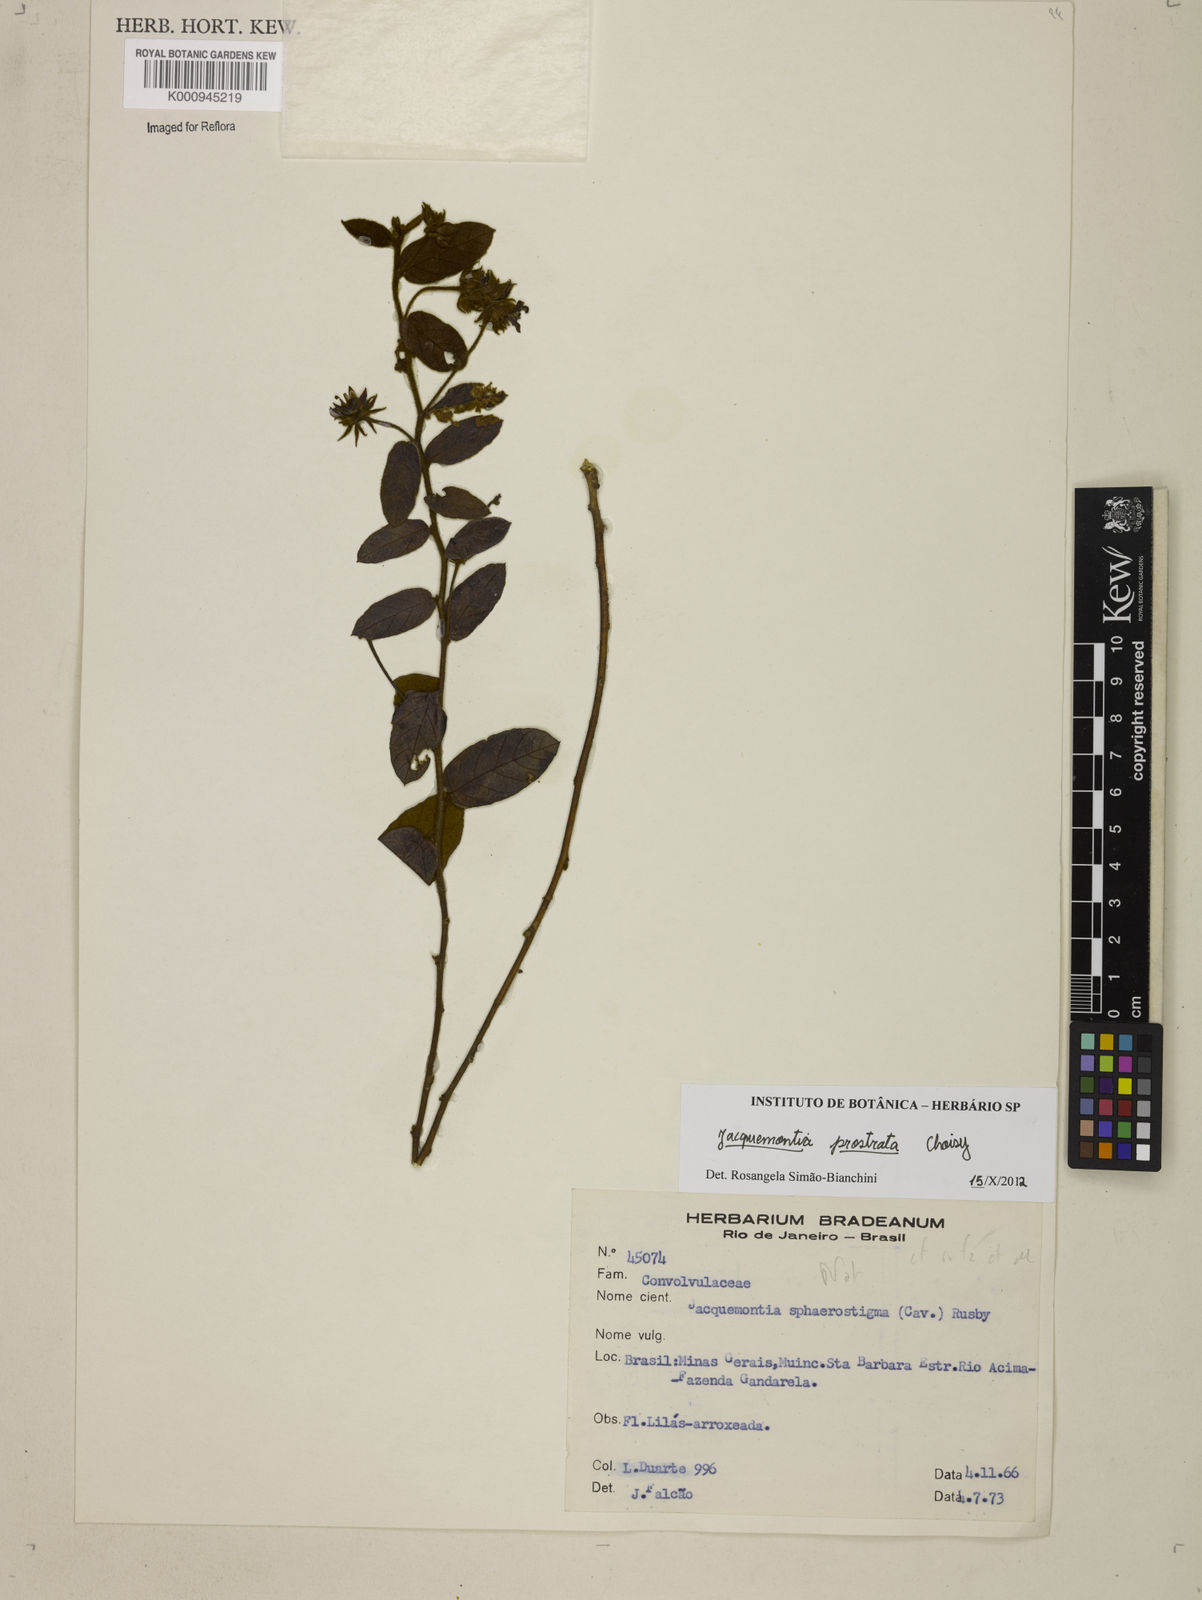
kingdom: Plantae
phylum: Tracheophyta
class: Magnoliopsida
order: Solanales
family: Convolvulaceae
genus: Jacquemontia
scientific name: Jacquemontia prostrata
